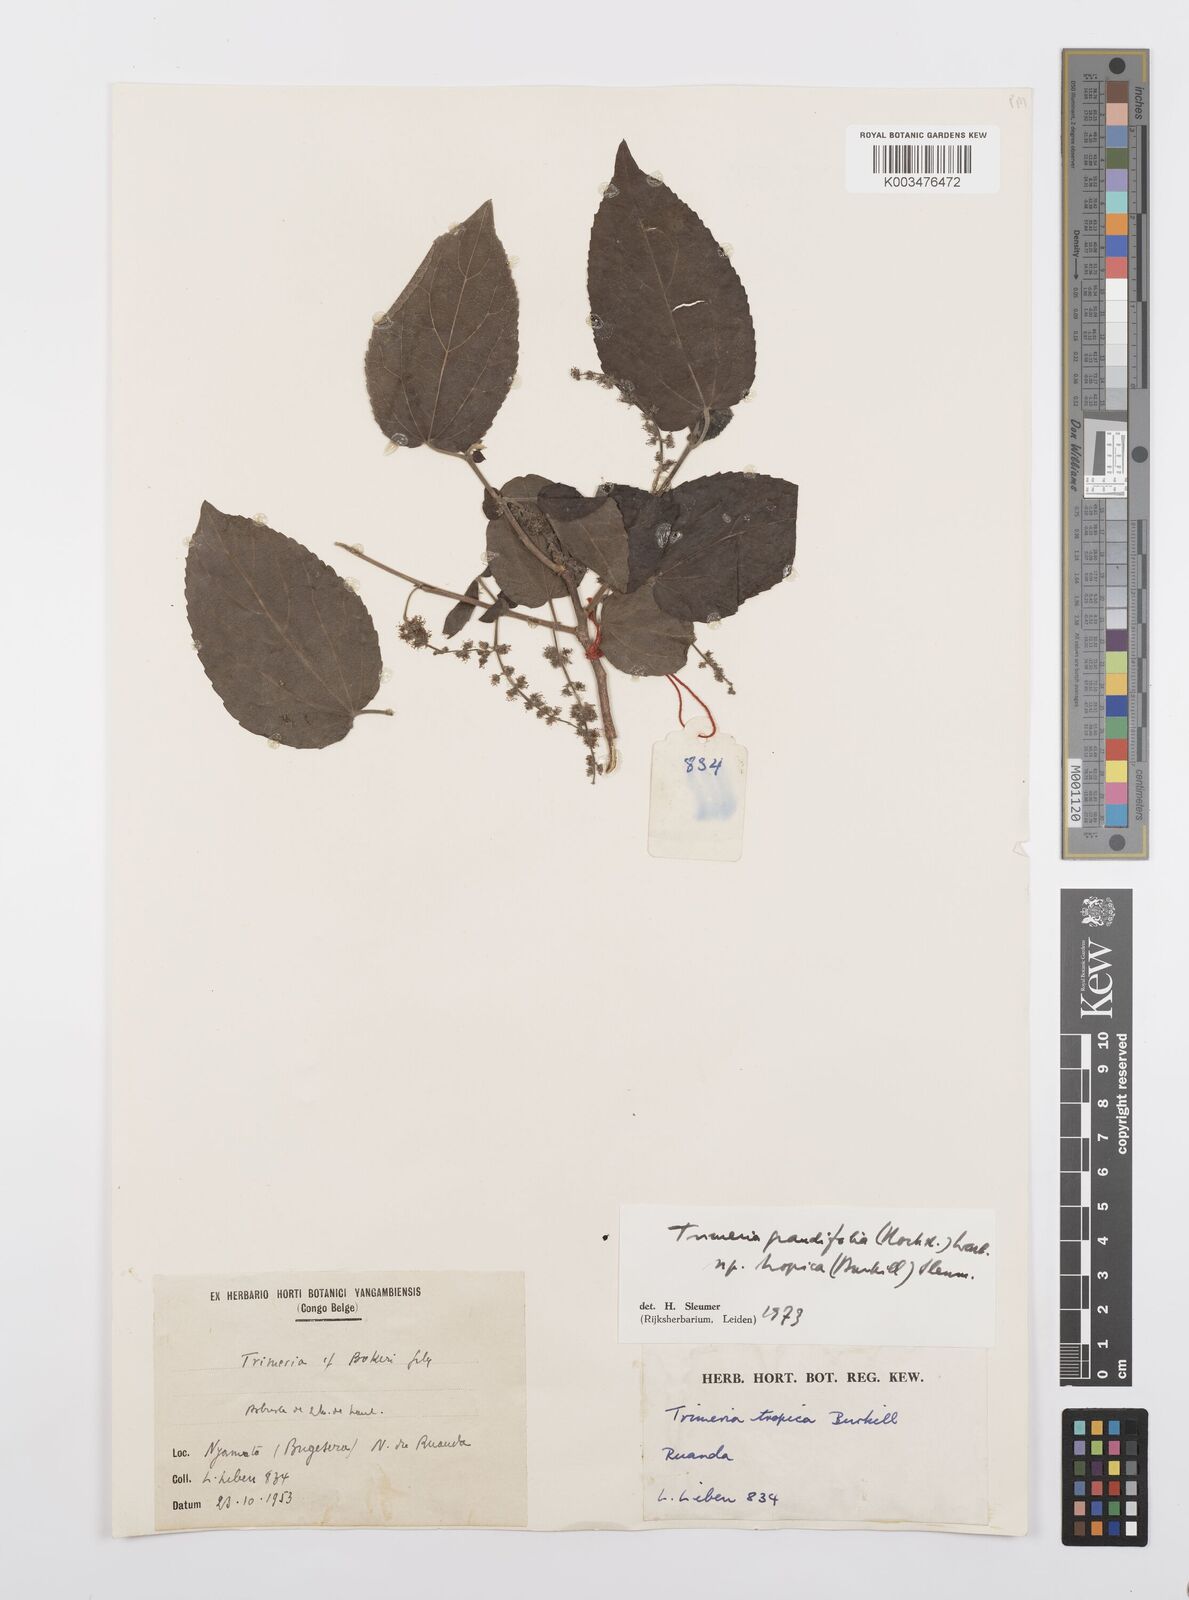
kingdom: Plantae
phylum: Tracheophyta
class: Magnoliopsida
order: Malpighiales
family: Salicaceae
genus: Trimeria
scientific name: Trimeria grandifolia
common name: Wild mulberry
